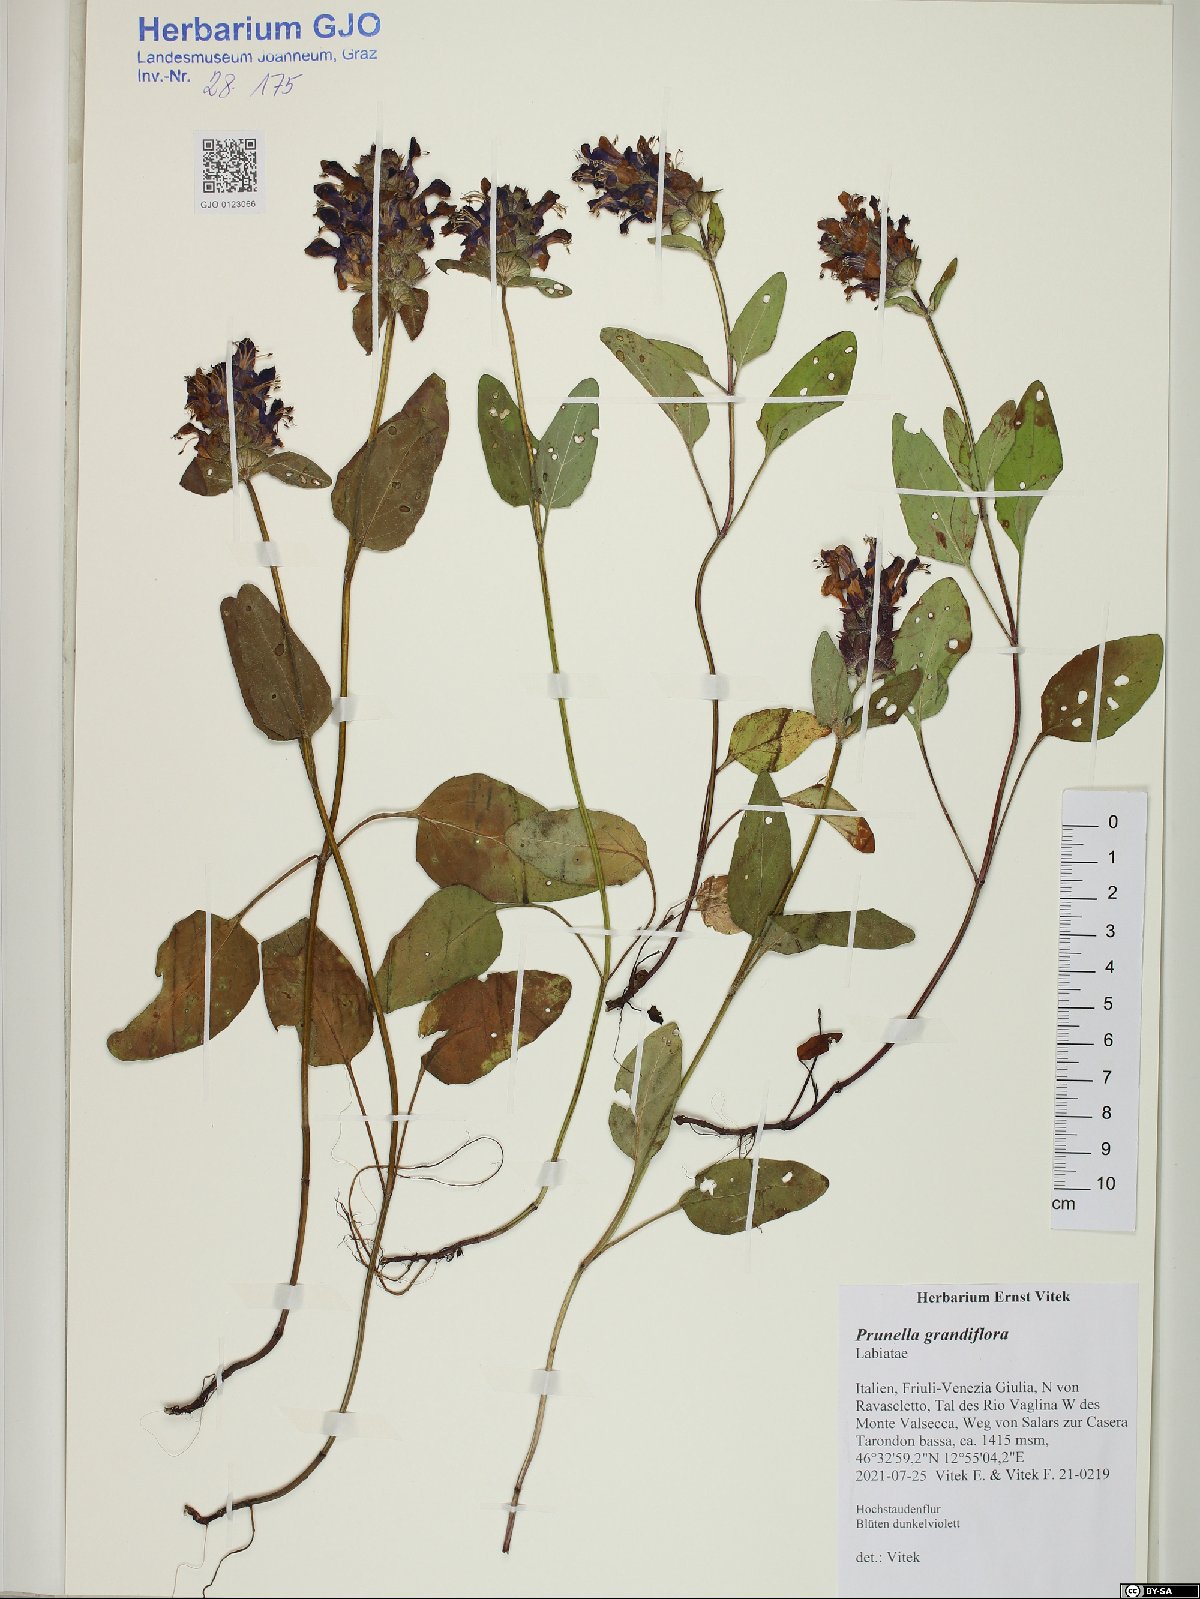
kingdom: Plantae
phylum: Tracheophyta
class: Magnoliopsida
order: Lamiales
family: Lamiaceae
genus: Prunella
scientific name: Prunella grandiflora
